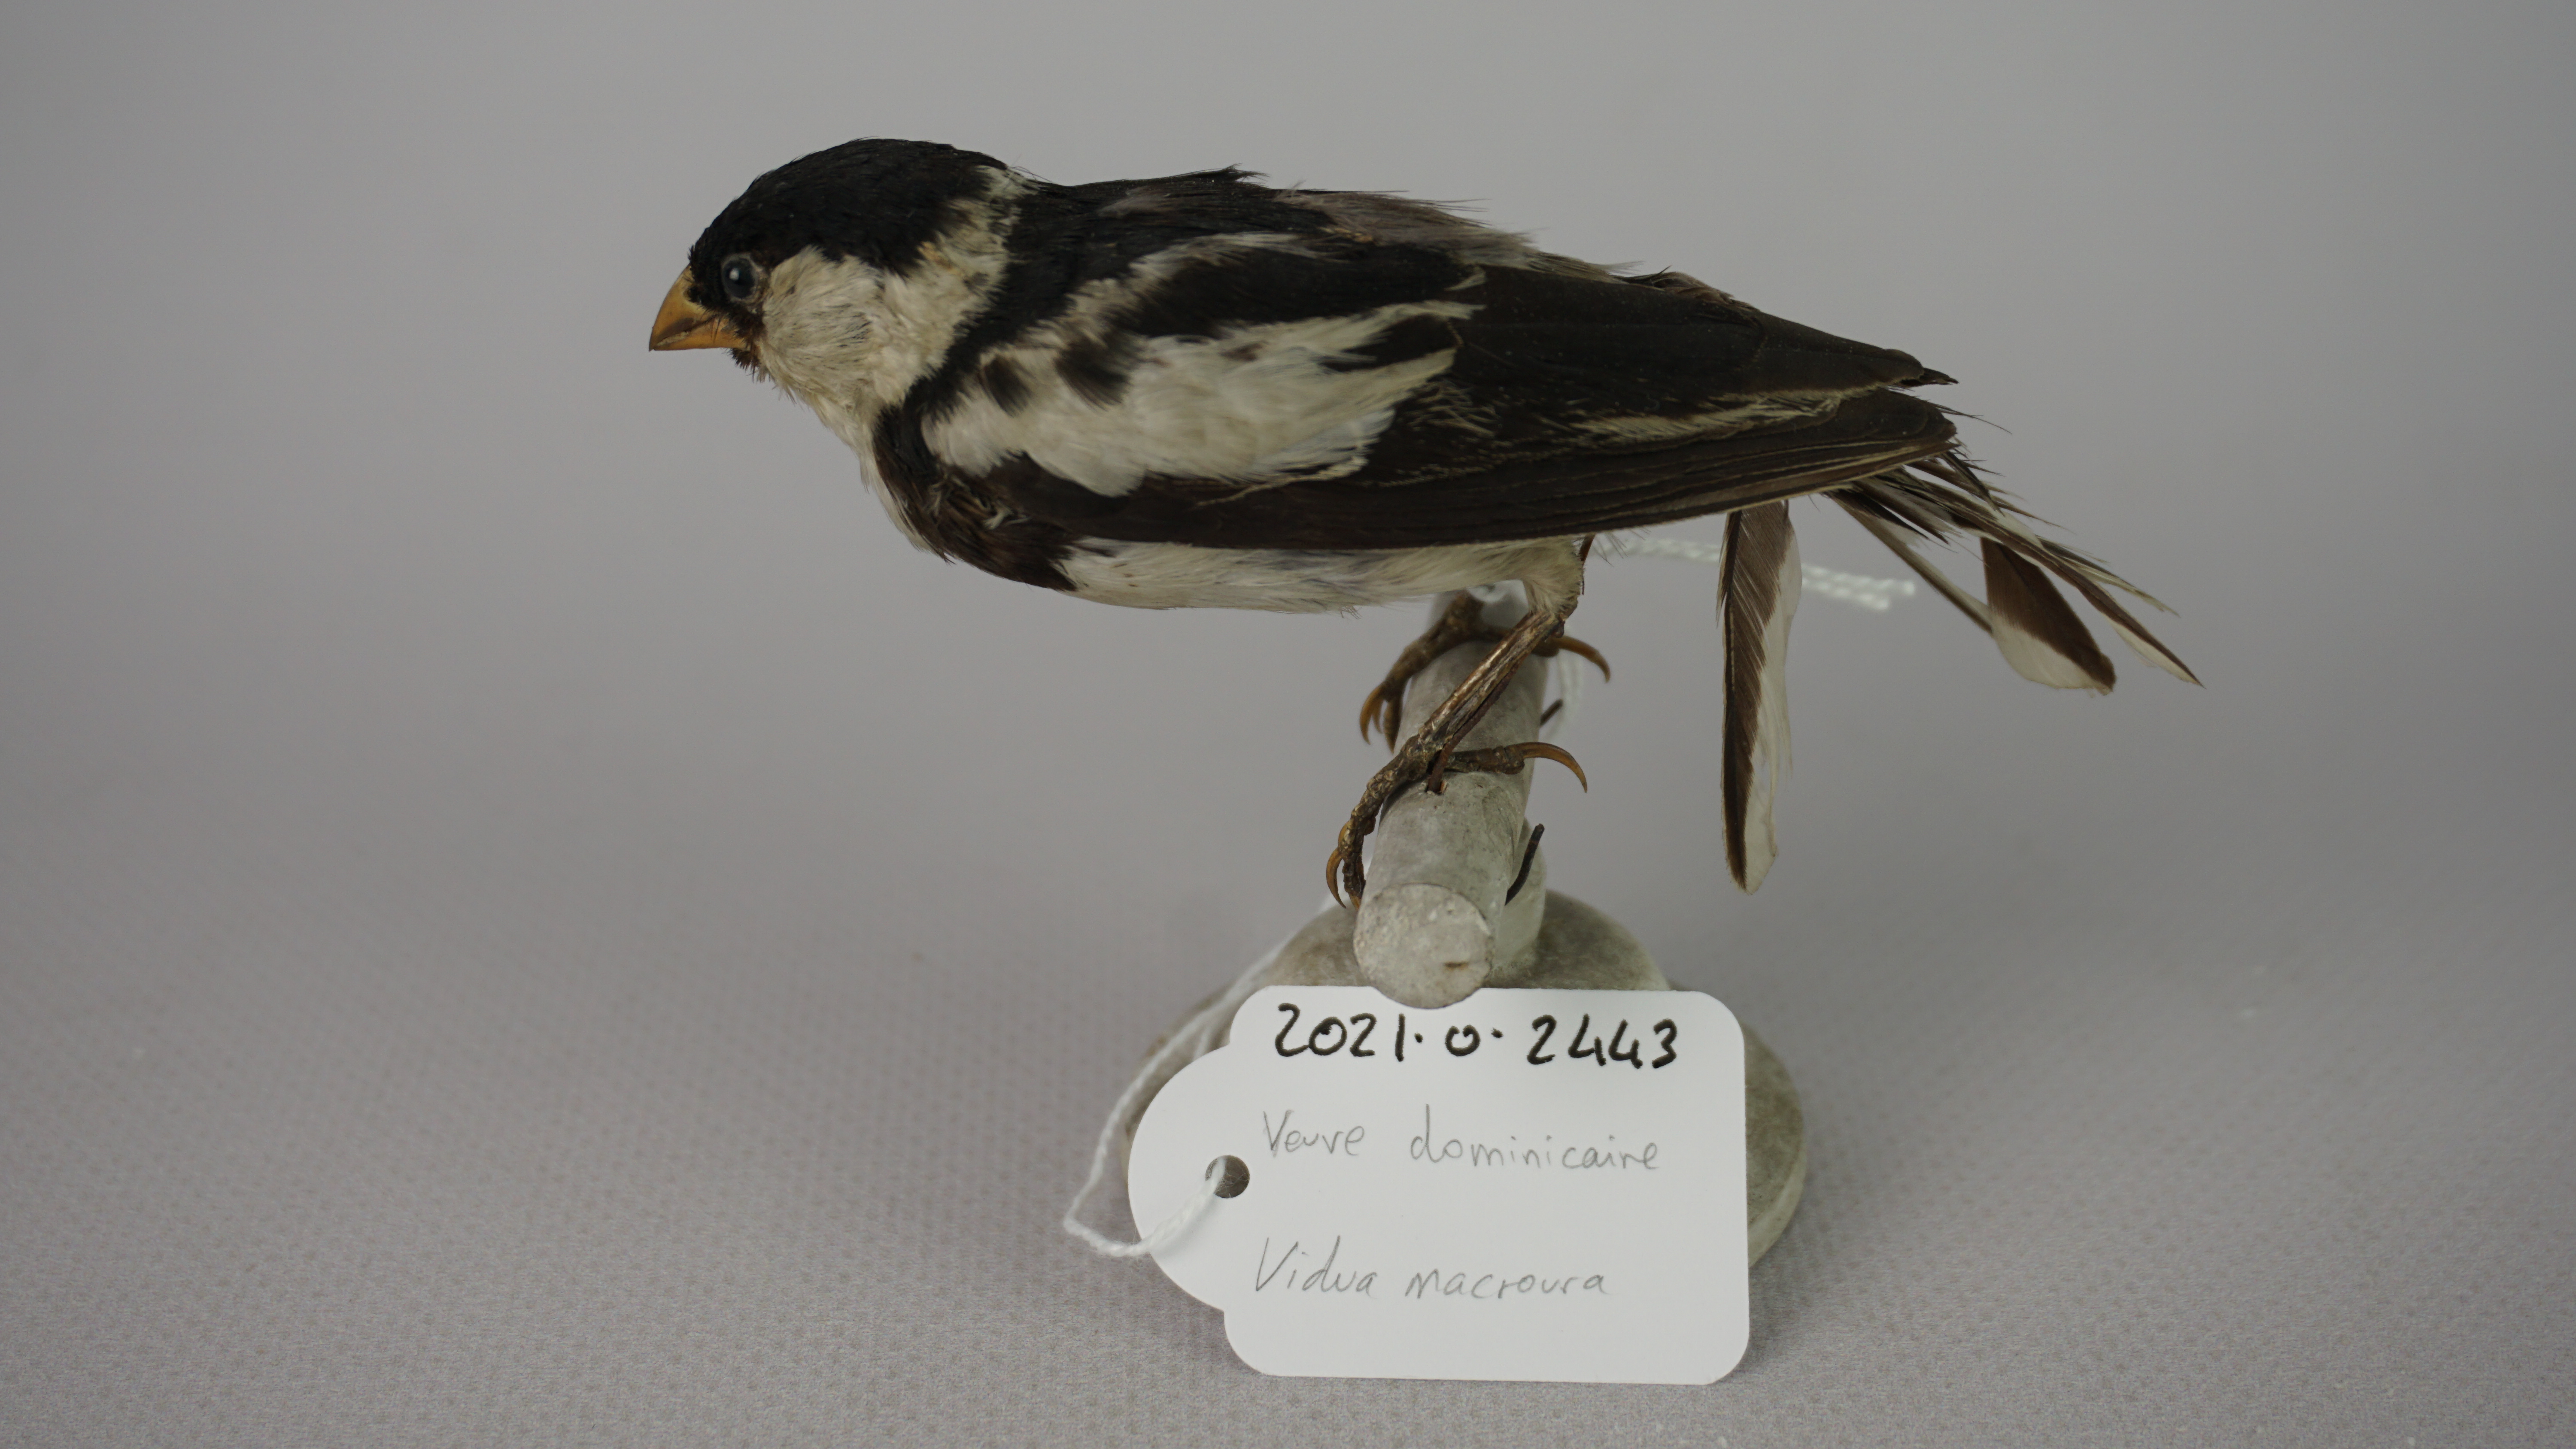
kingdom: Animalia
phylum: Chordata
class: Aves
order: Passeriformes
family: Viduidae
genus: Vidua
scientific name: Vidua macroura
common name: Pin-tailed whydah
